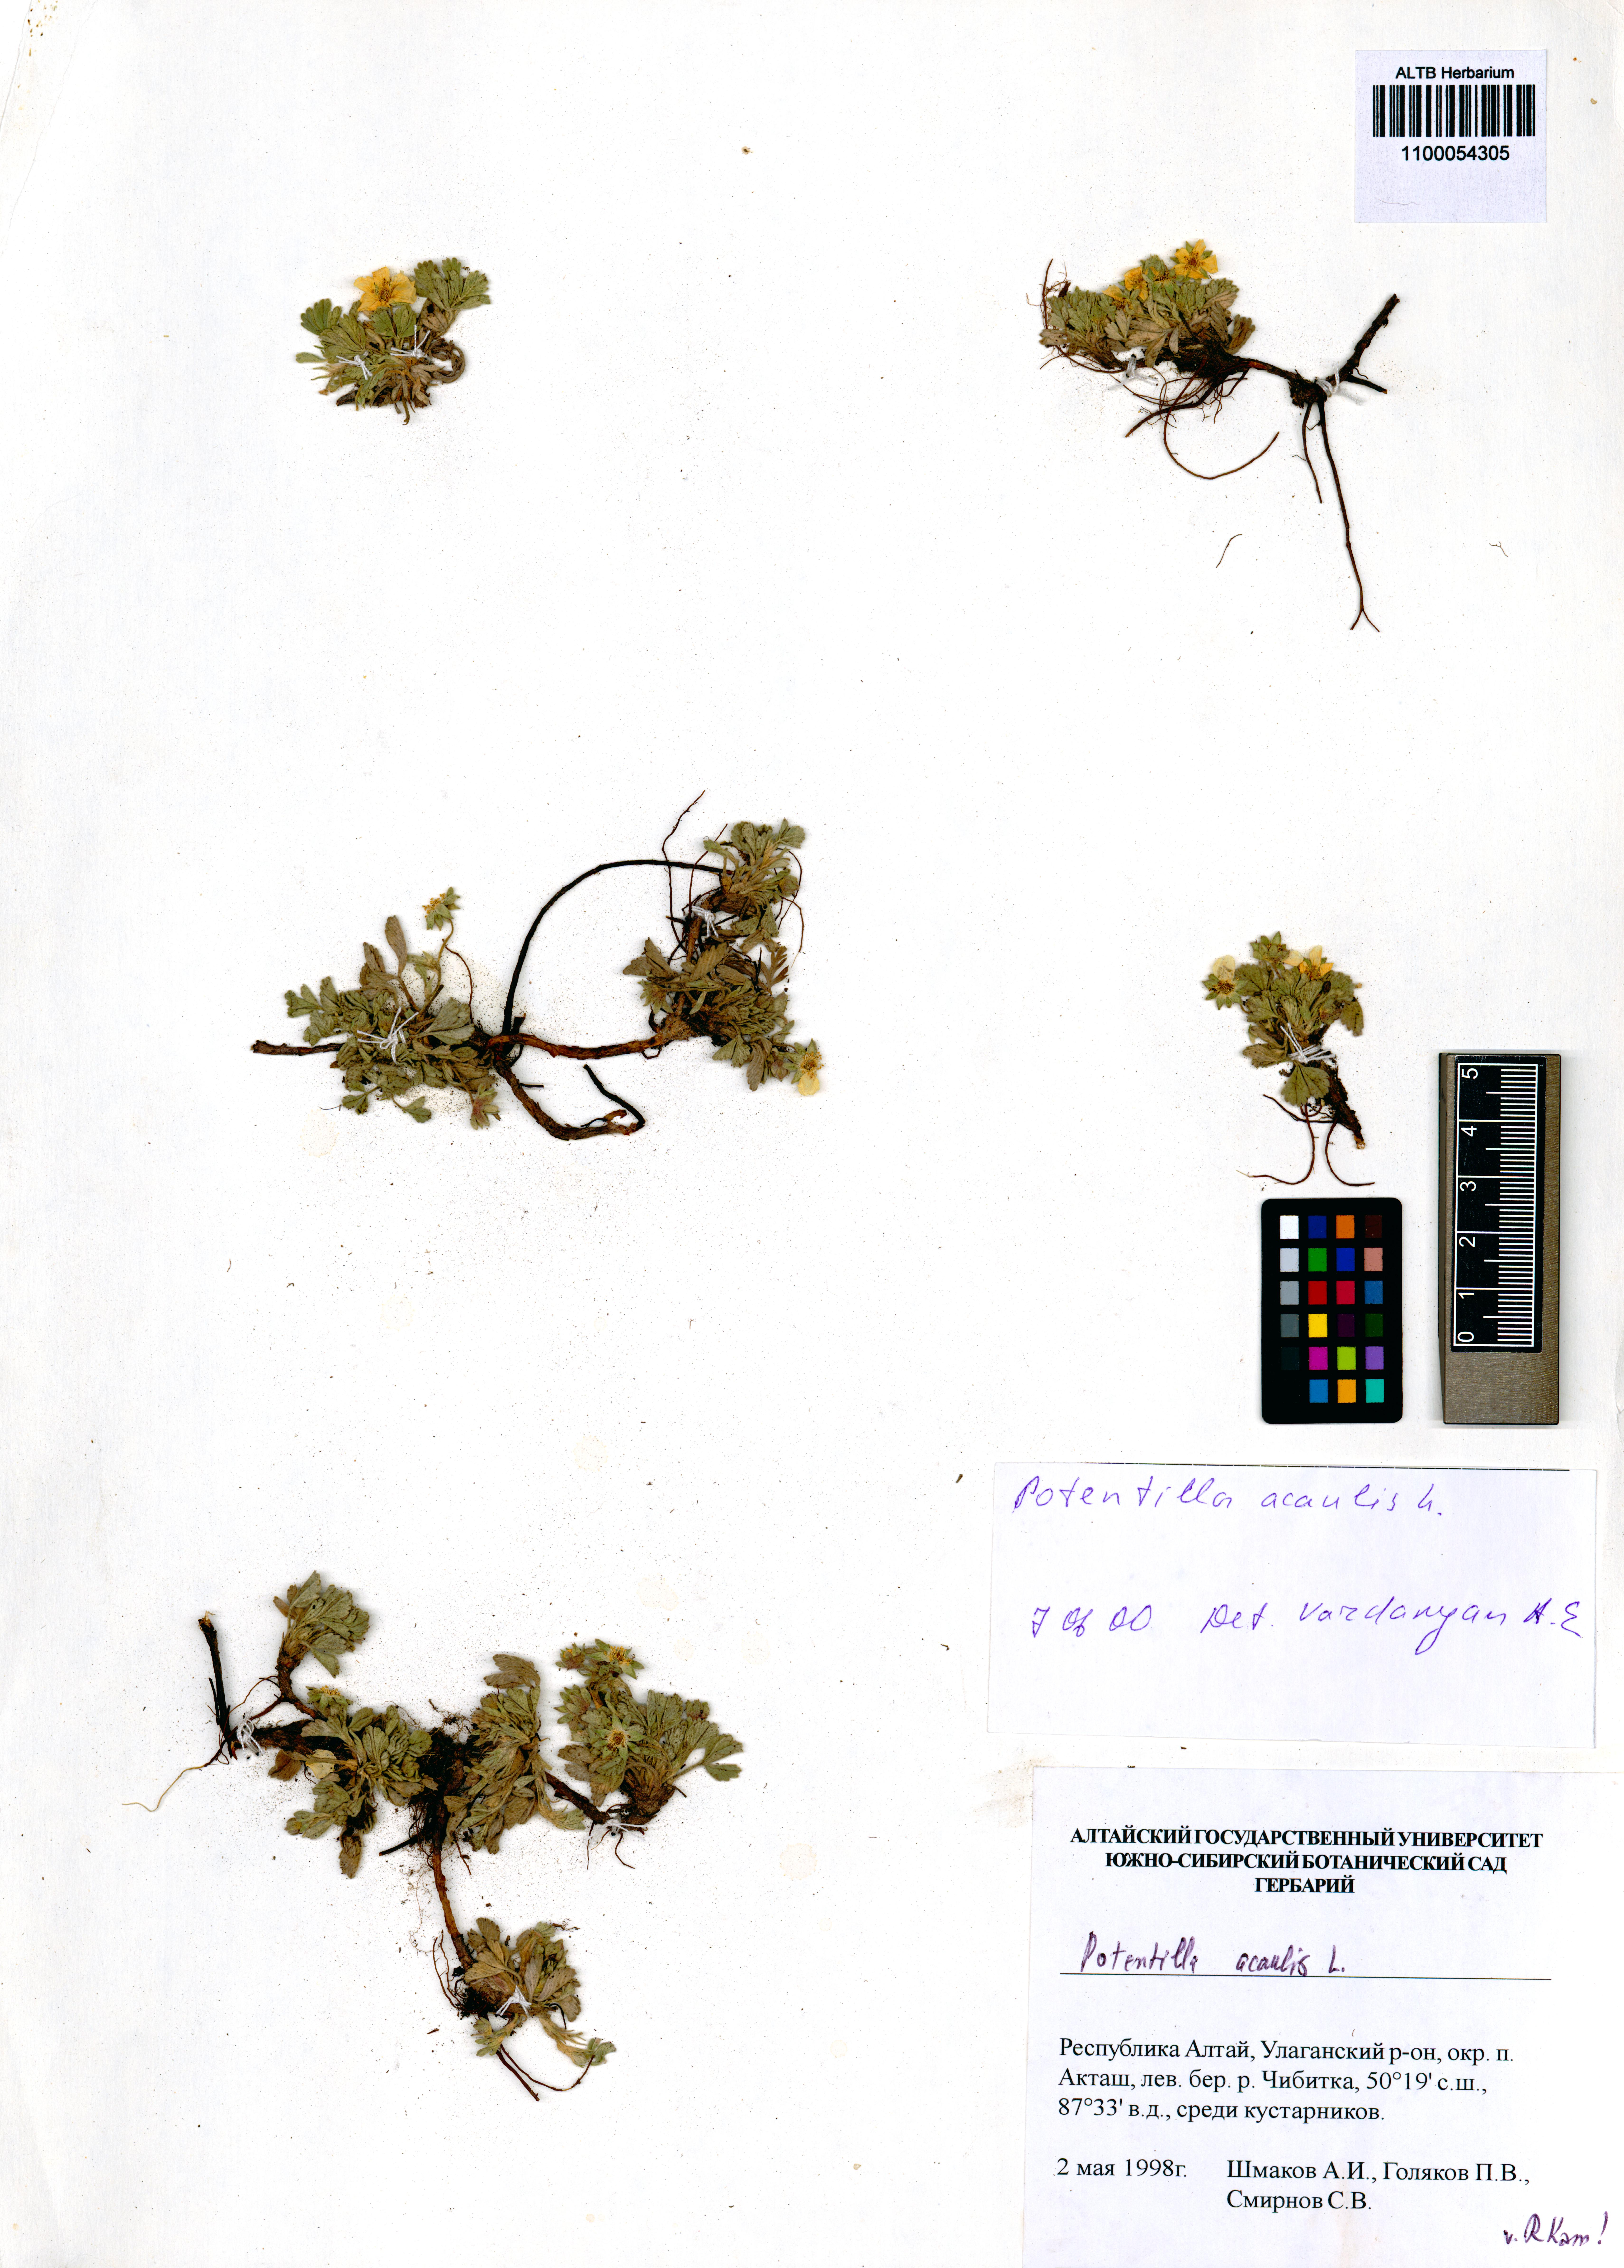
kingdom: Plantae
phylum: Tracheophyta
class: Magnoliopsida
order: Rosales
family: Rosaceae
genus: Potentilla
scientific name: Potentilla acaulis
